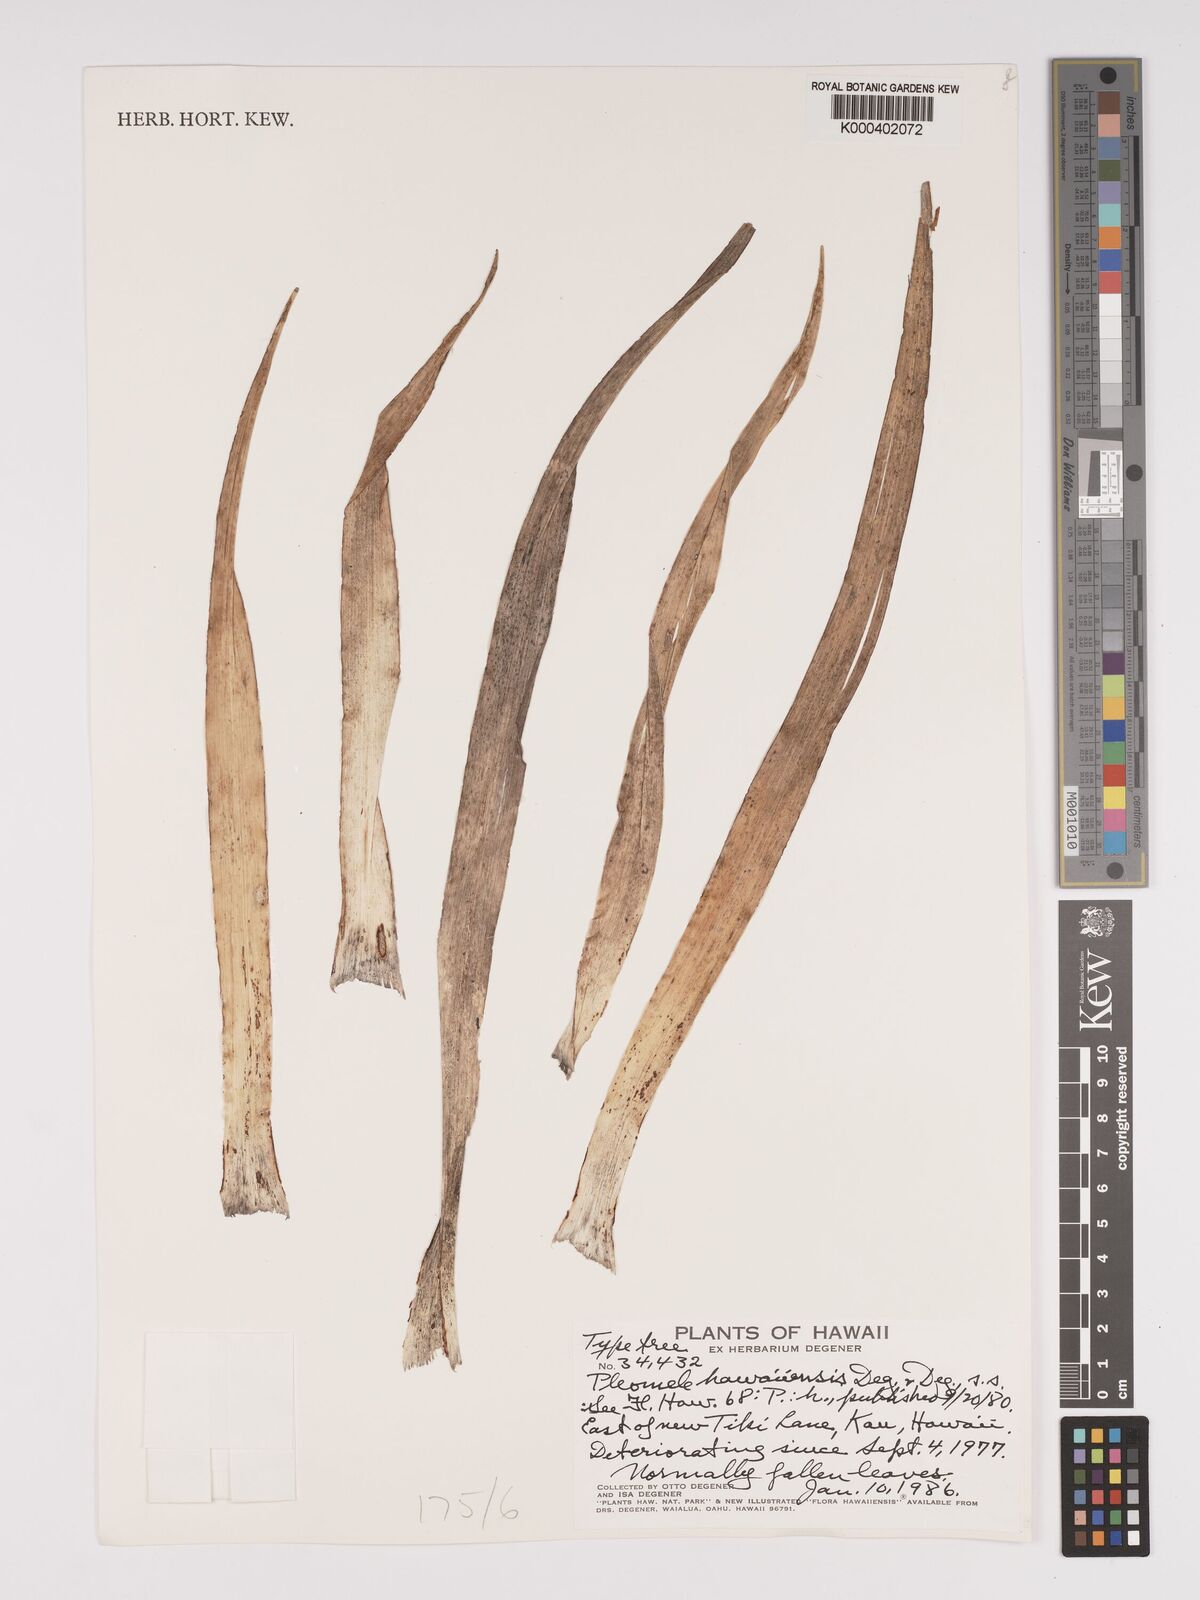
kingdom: Plantae
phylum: Tracheophyta
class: Liliopsida
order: Asparagales
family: Asparagaceae
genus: Dracaena
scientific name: Dracaena fernaldii
